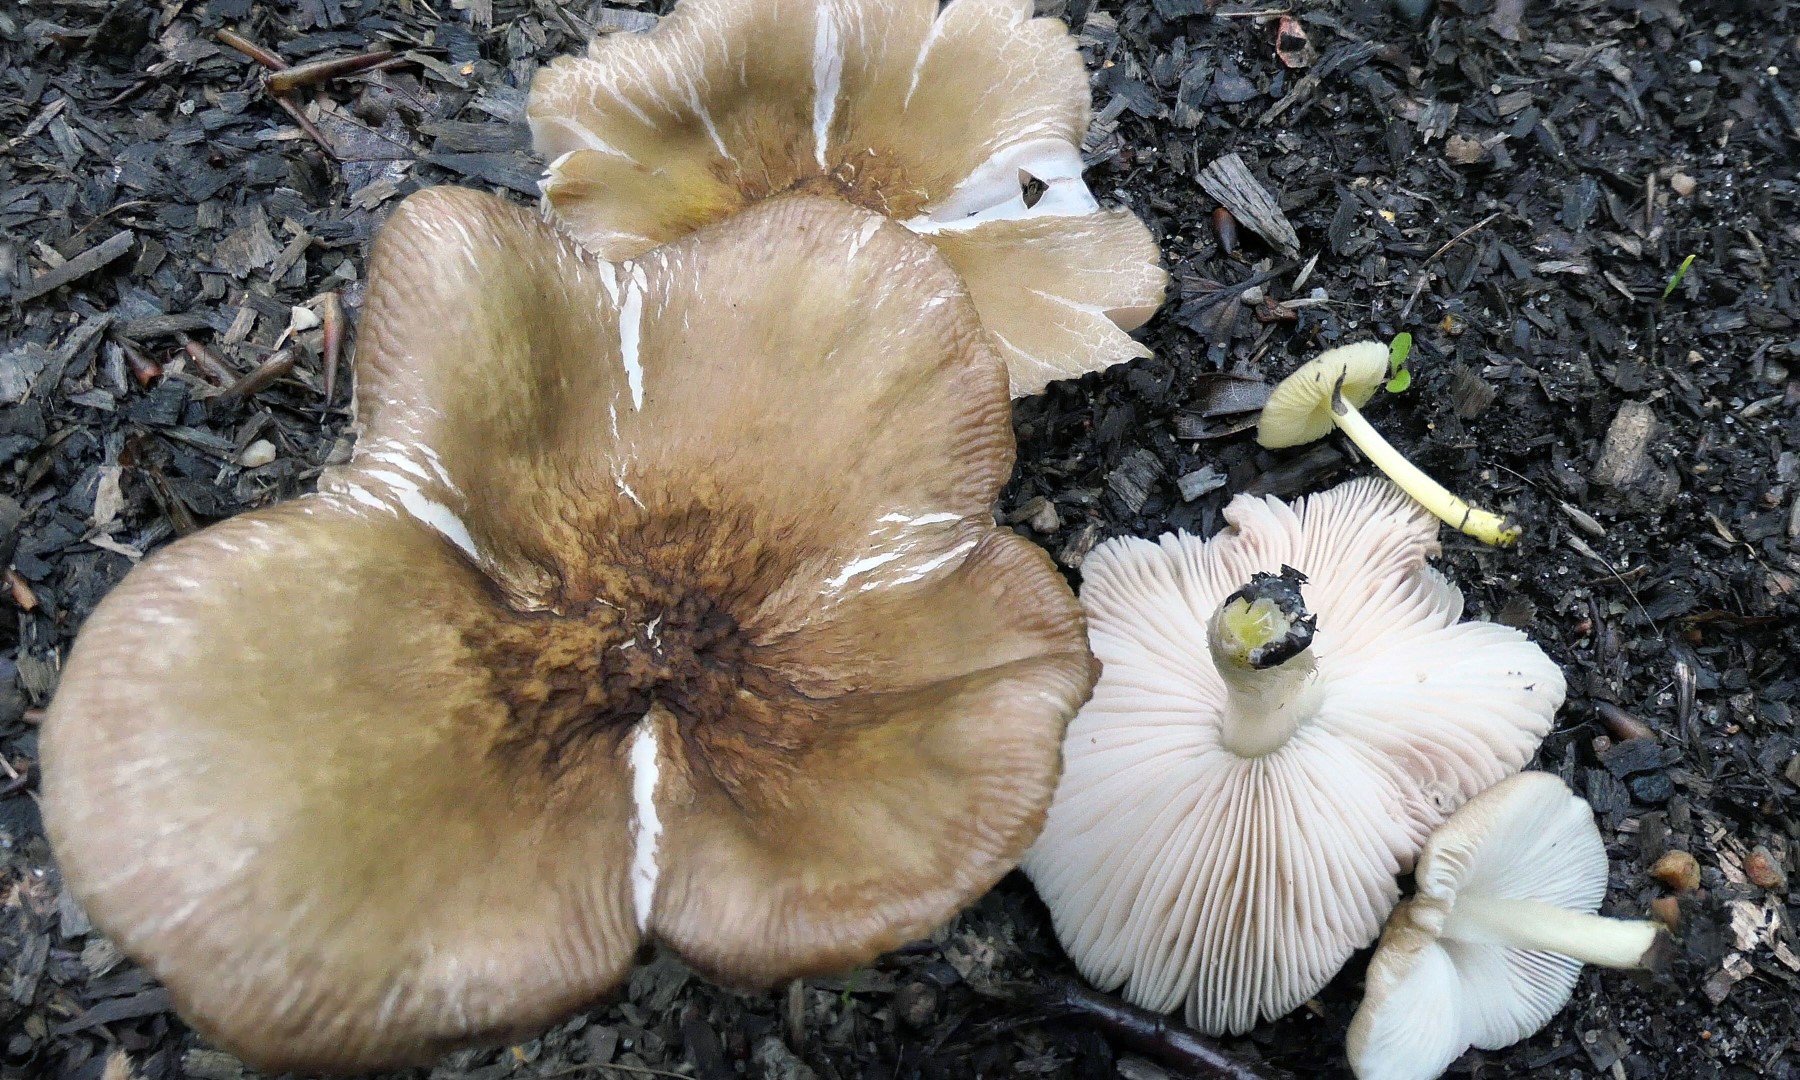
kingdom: Fungi
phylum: Basidiomycota
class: Agaricomycetes
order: Agaricales
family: Pluteaceae
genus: Pluteus
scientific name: Pluteus romellii
